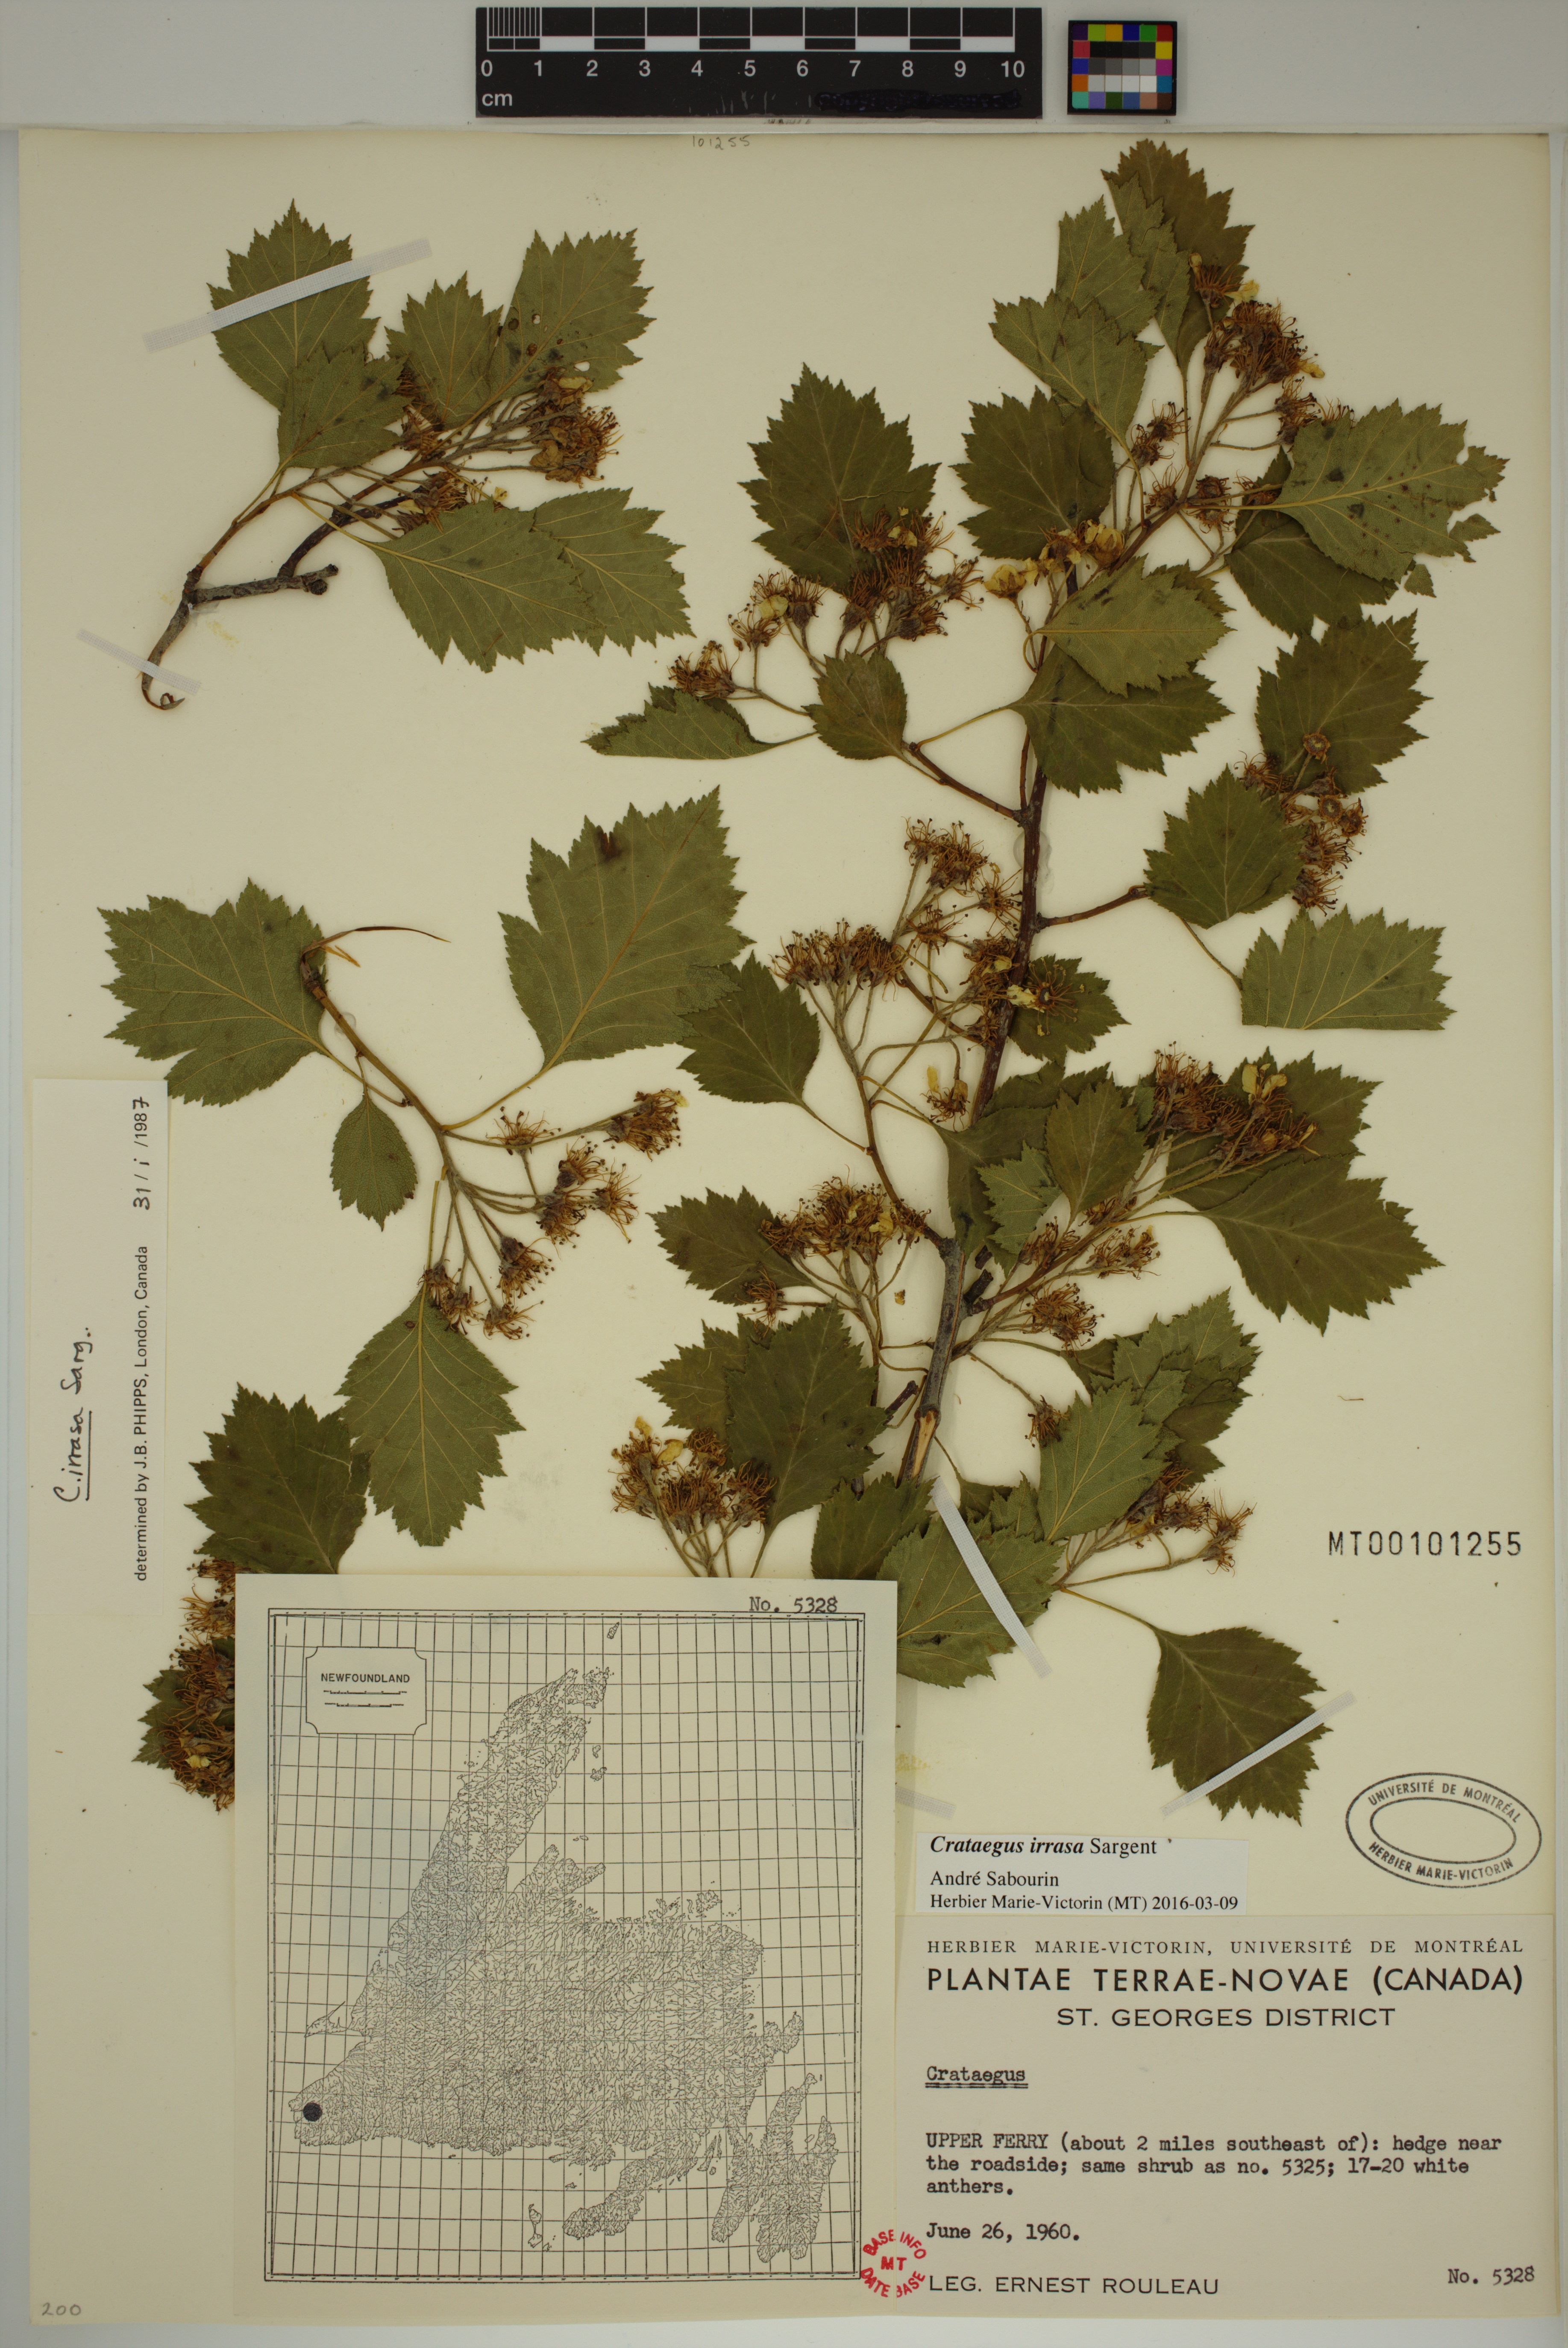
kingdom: Plantae
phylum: Tracheophyta
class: Magnoliopsida
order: Rosales
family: Rosaceae
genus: Crataegus
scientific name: Crataegus irrasa
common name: Unshorn hawthorn
